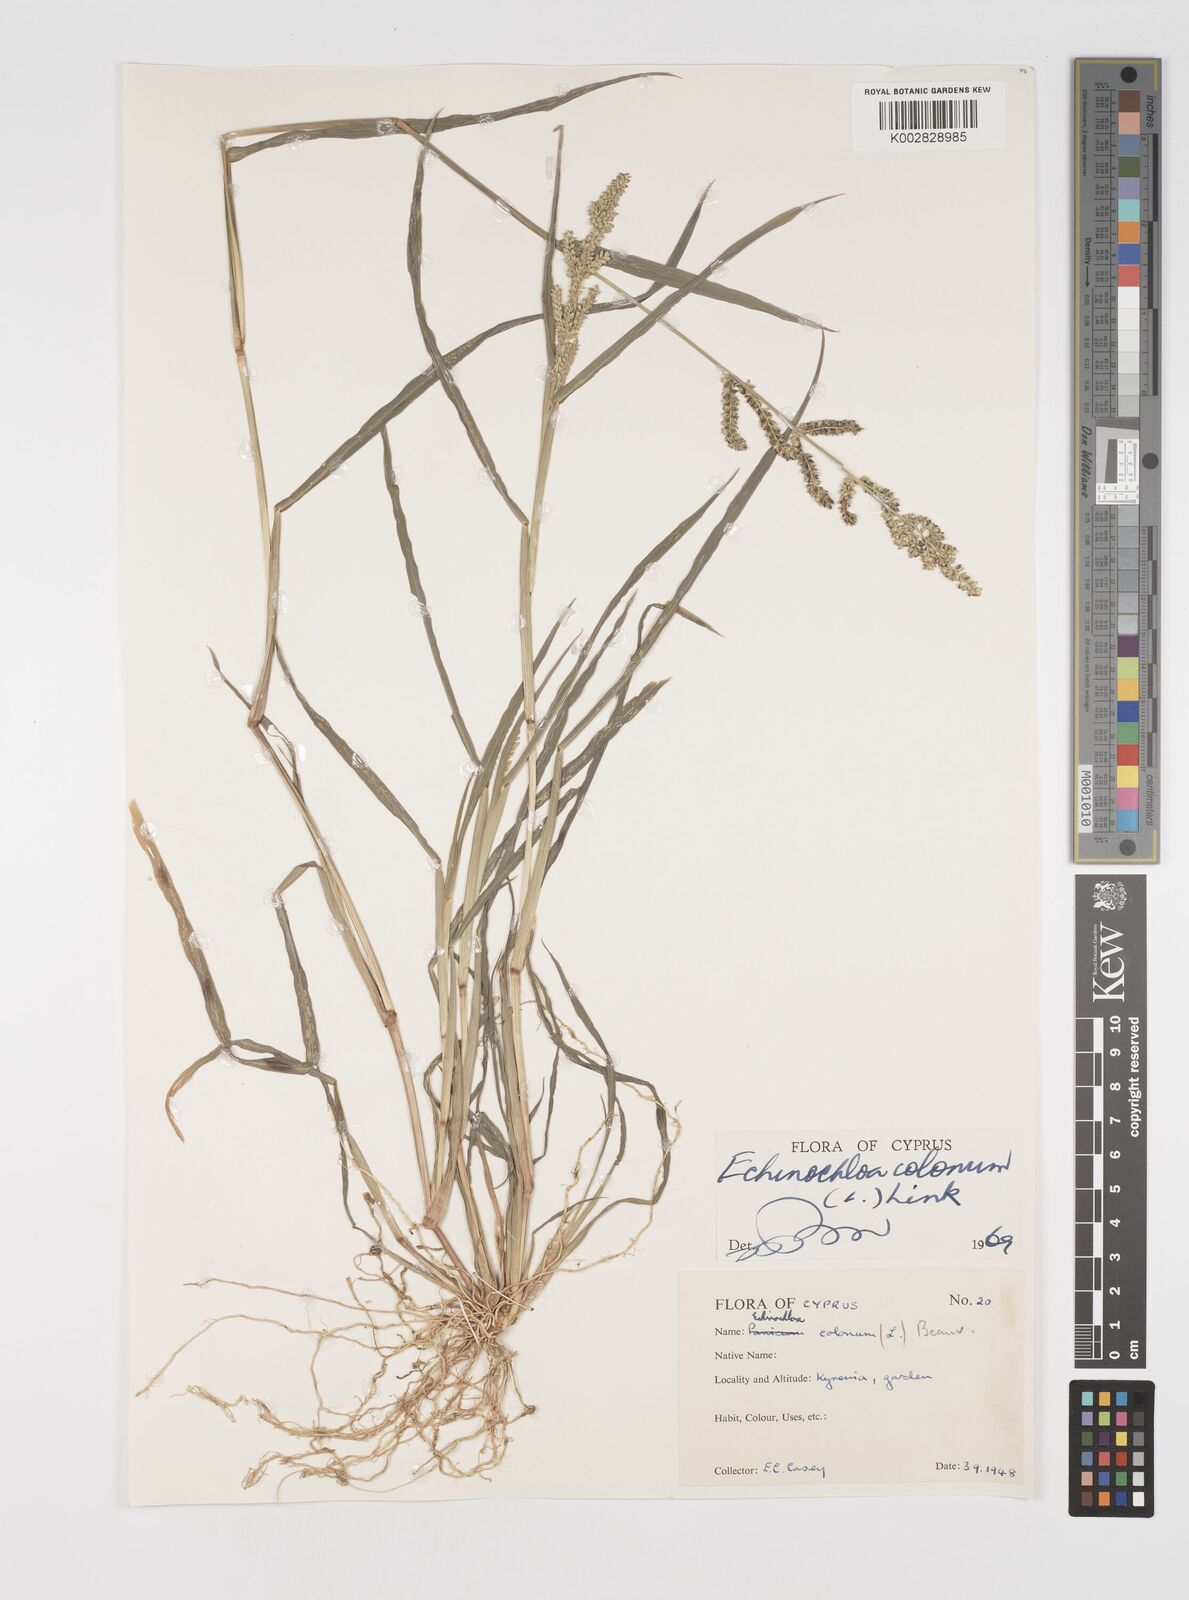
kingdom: Plantae
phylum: Tracheophyta
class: Liliopsida
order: Poales
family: Poaceae
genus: Echinochloa
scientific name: Echinochloa colonum
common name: Jungle rice
